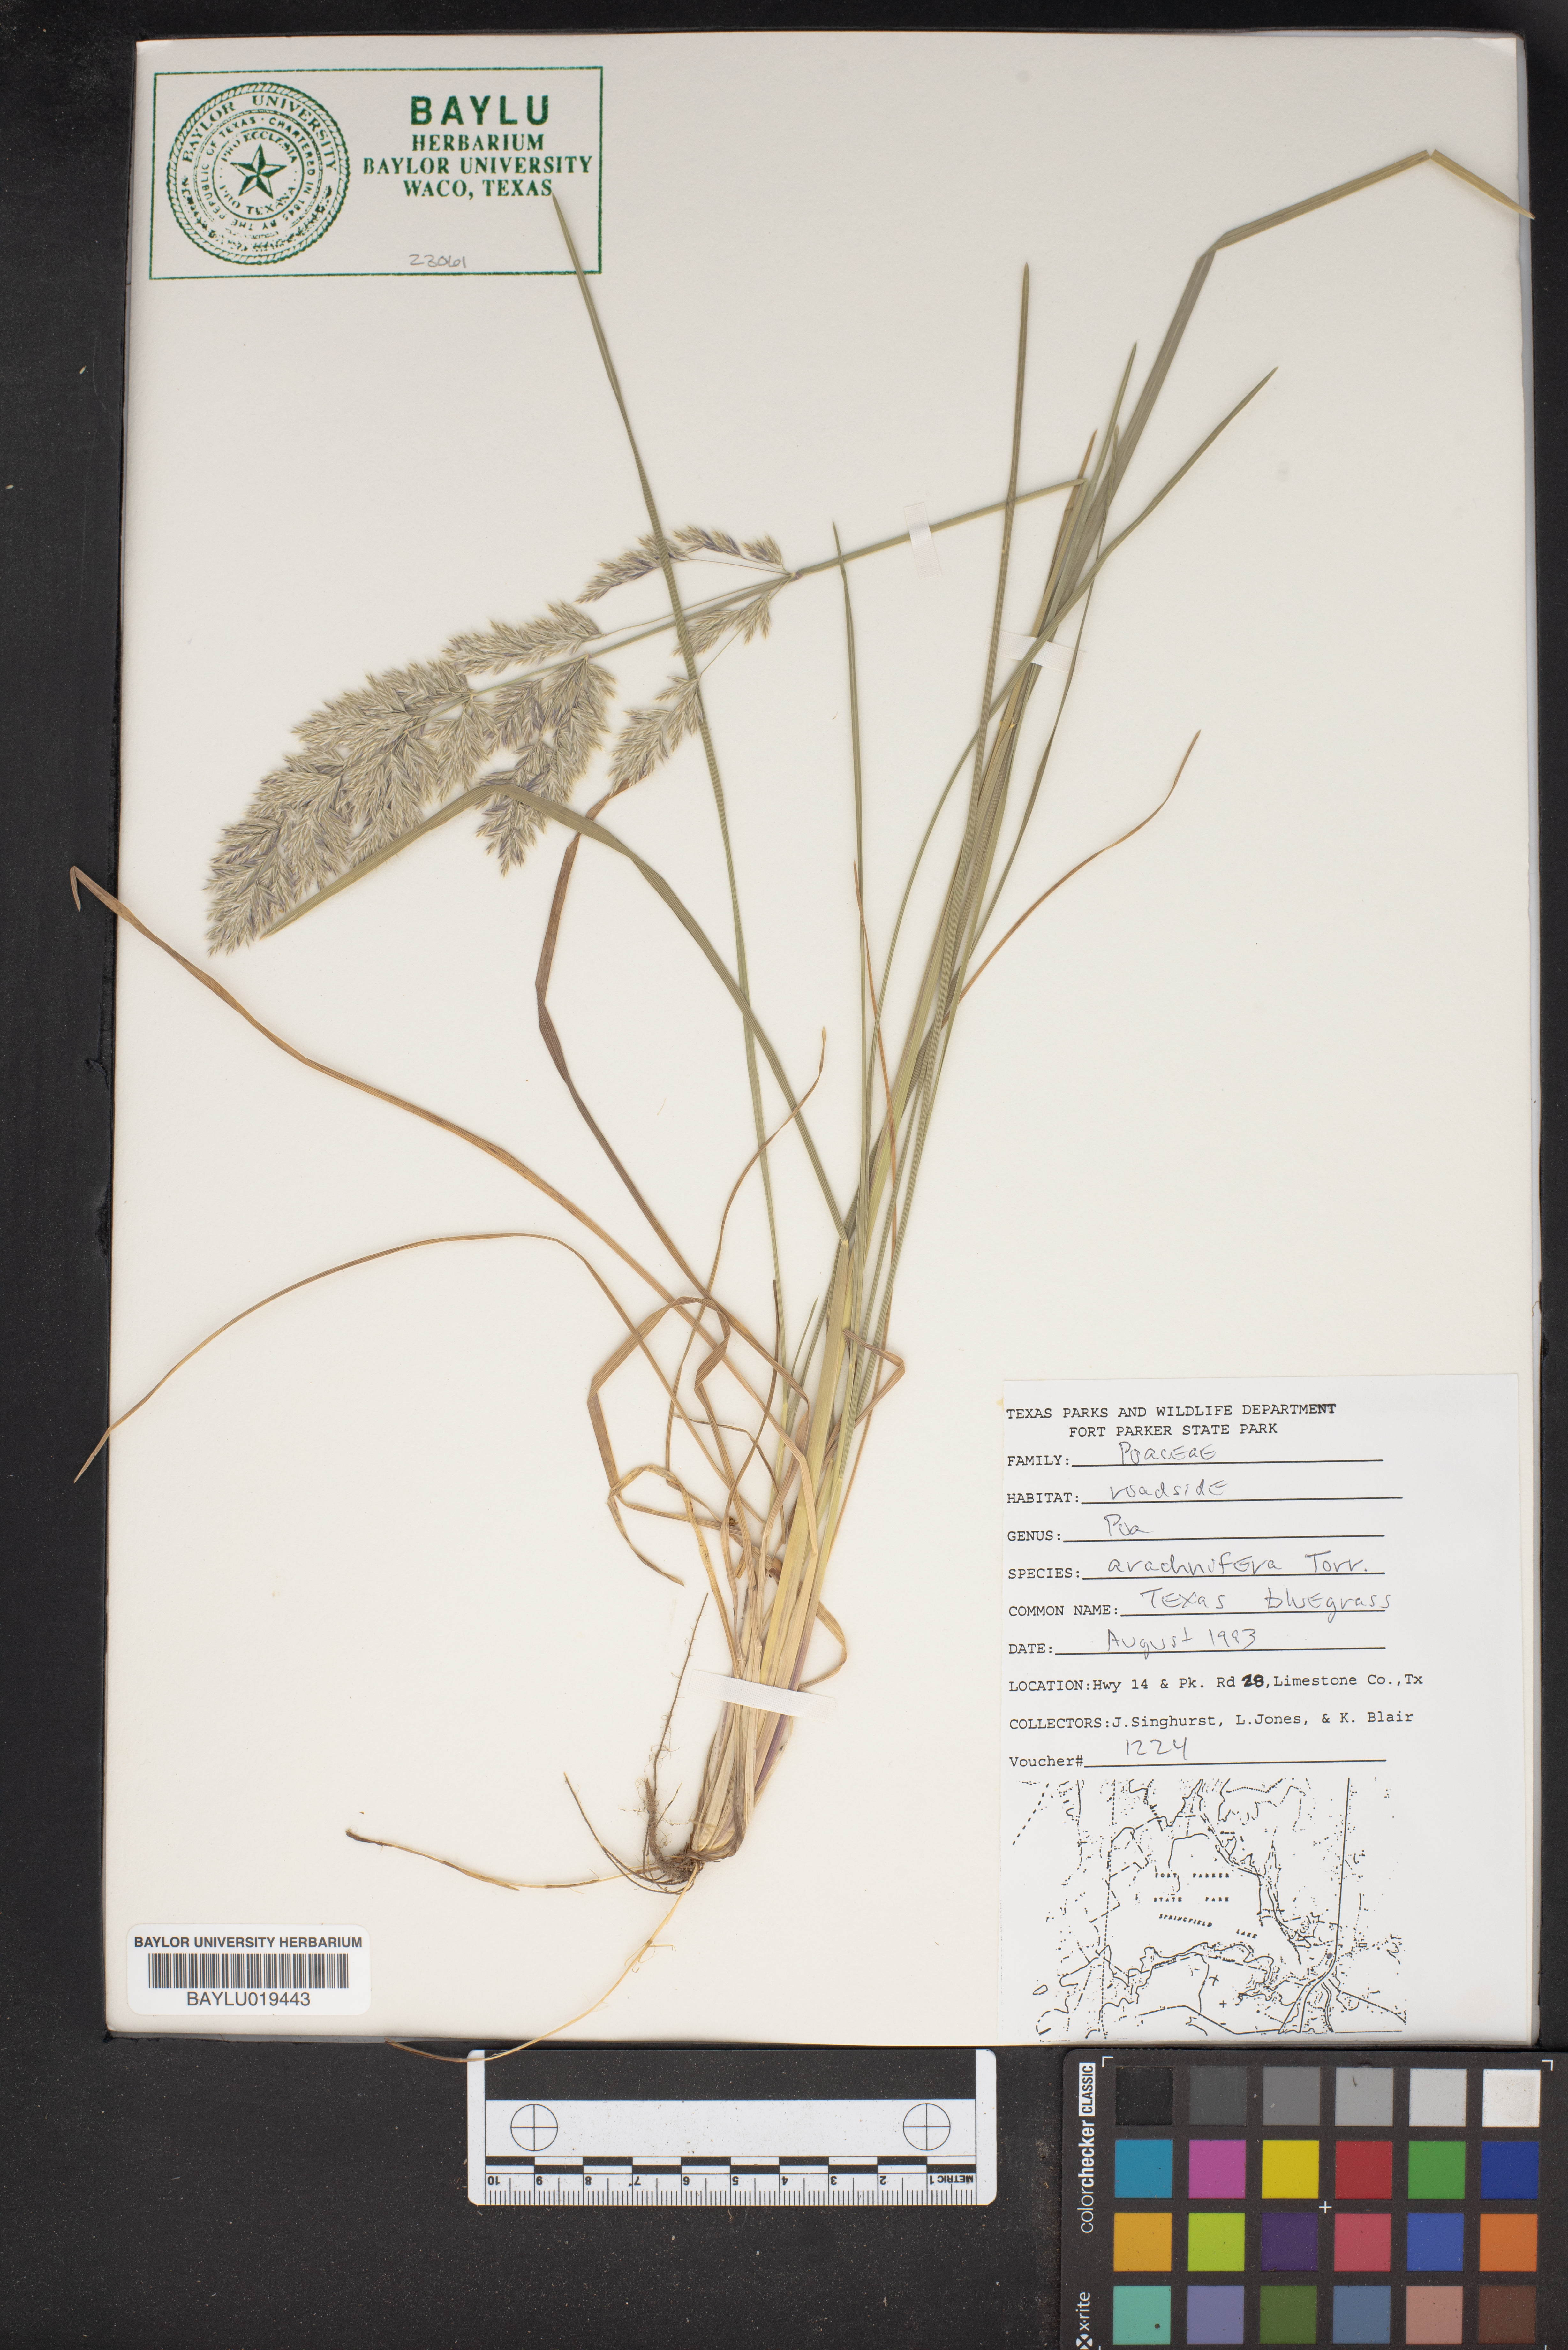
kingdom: Plantae
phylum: Tracheophyta
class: Liliopsida
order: Poales
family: Poaceae
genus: Poa
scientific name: Poa arachnifera
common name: Texas bluegrass
